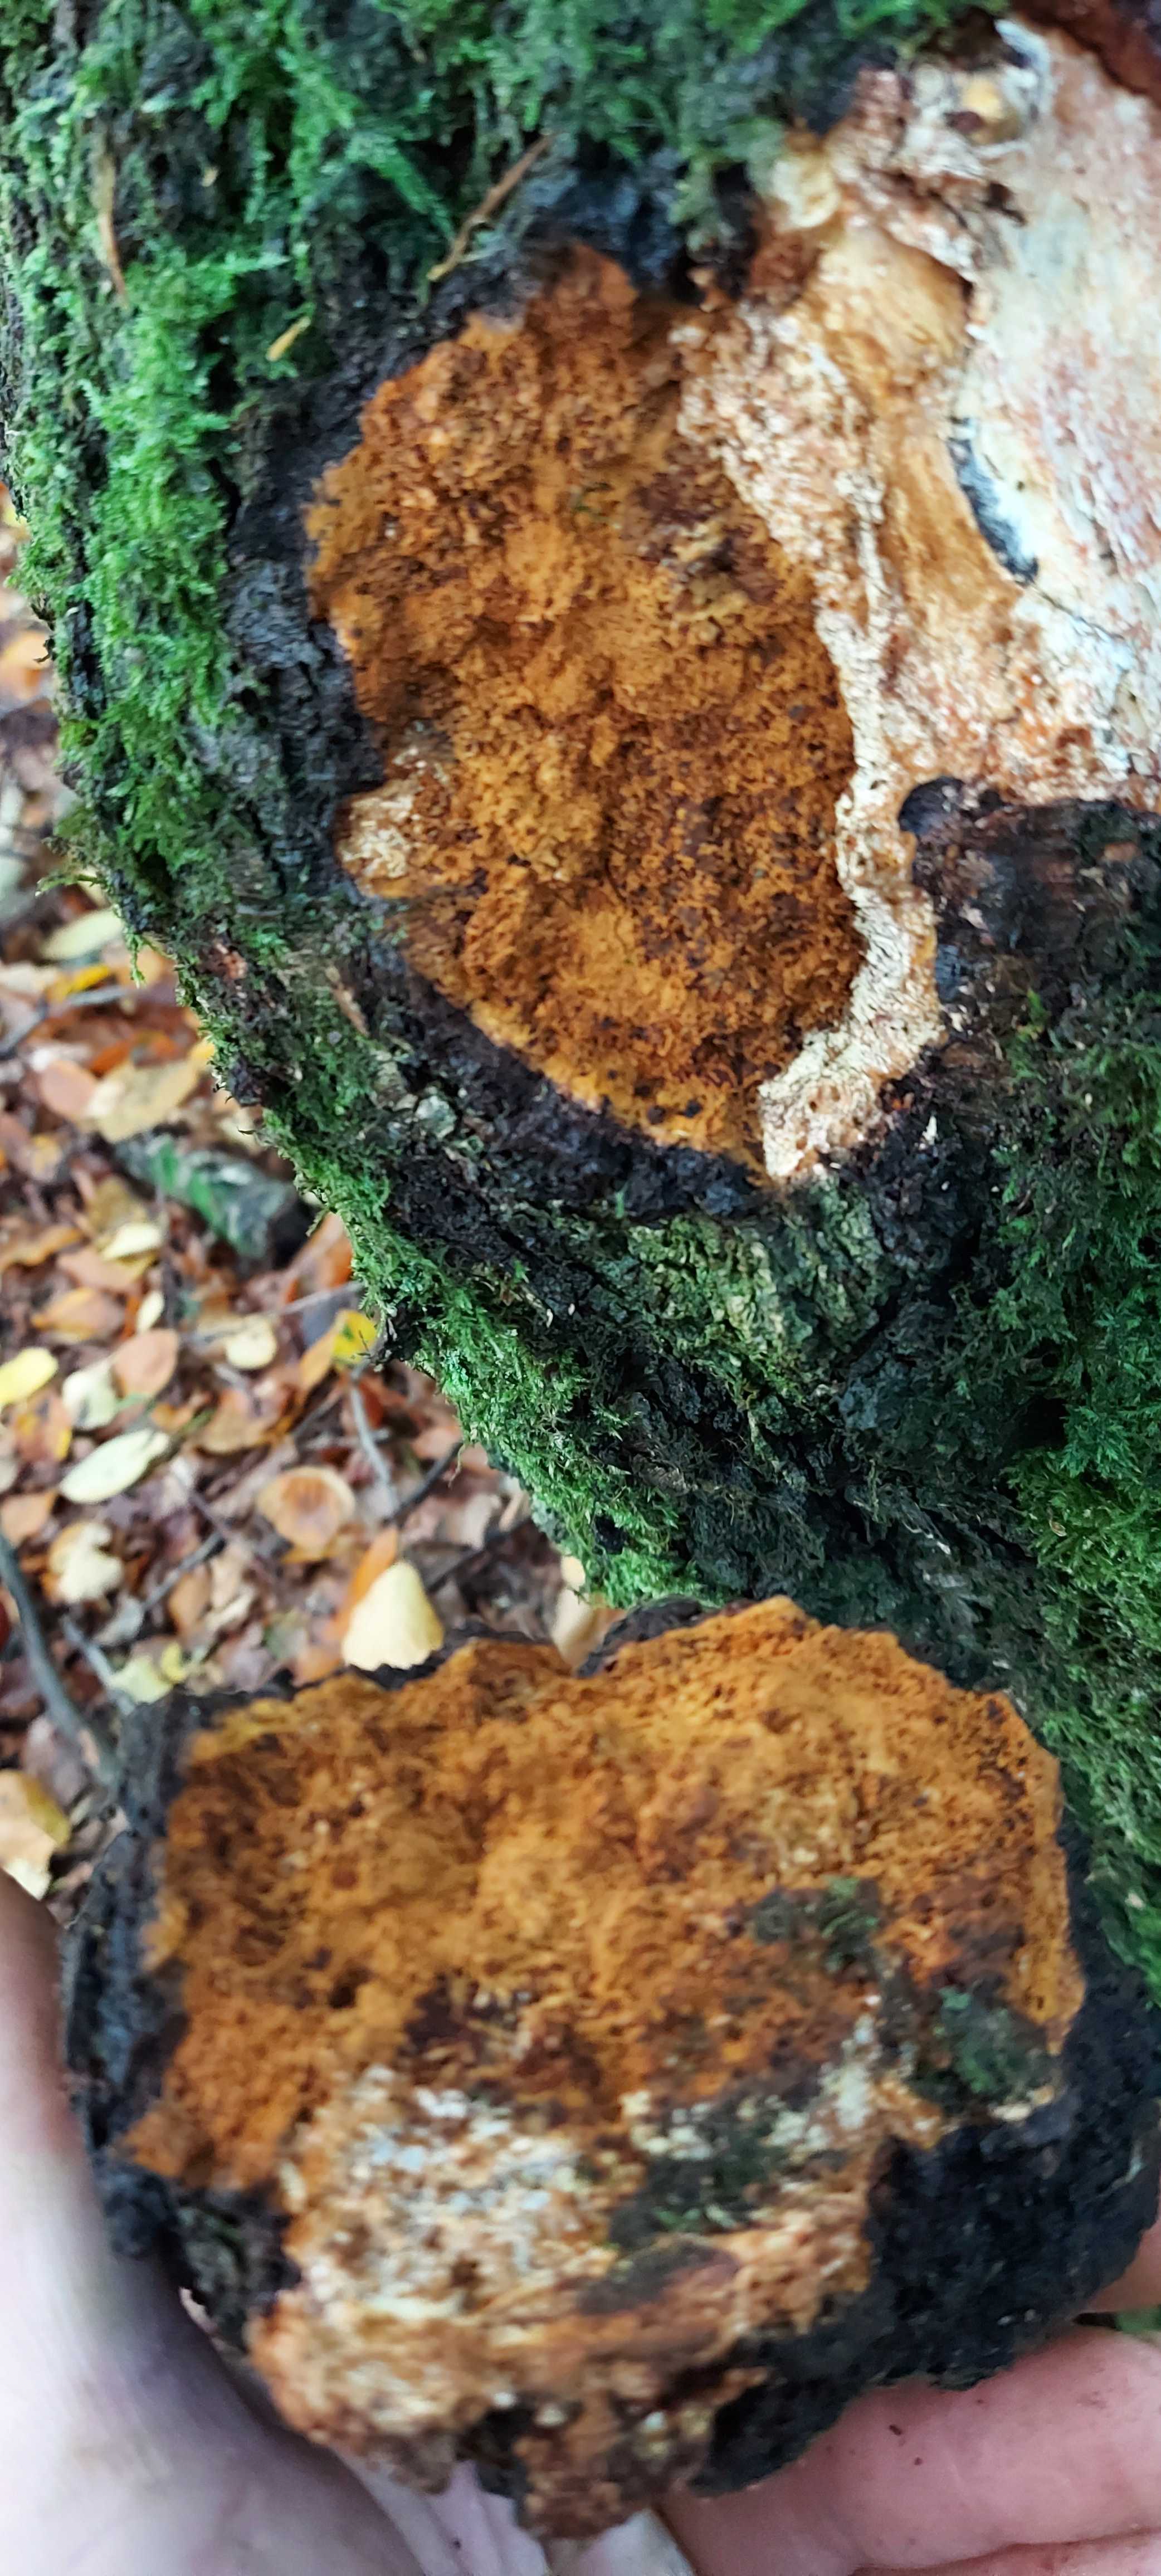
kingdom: Fungi
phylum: Basidiomycota
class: Agaricomycetes
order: Hymenochaetales
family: Hymenochaetaceae
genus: Inonotus
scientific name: Inonotus obliquus
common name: birke-spejlporesvamp
